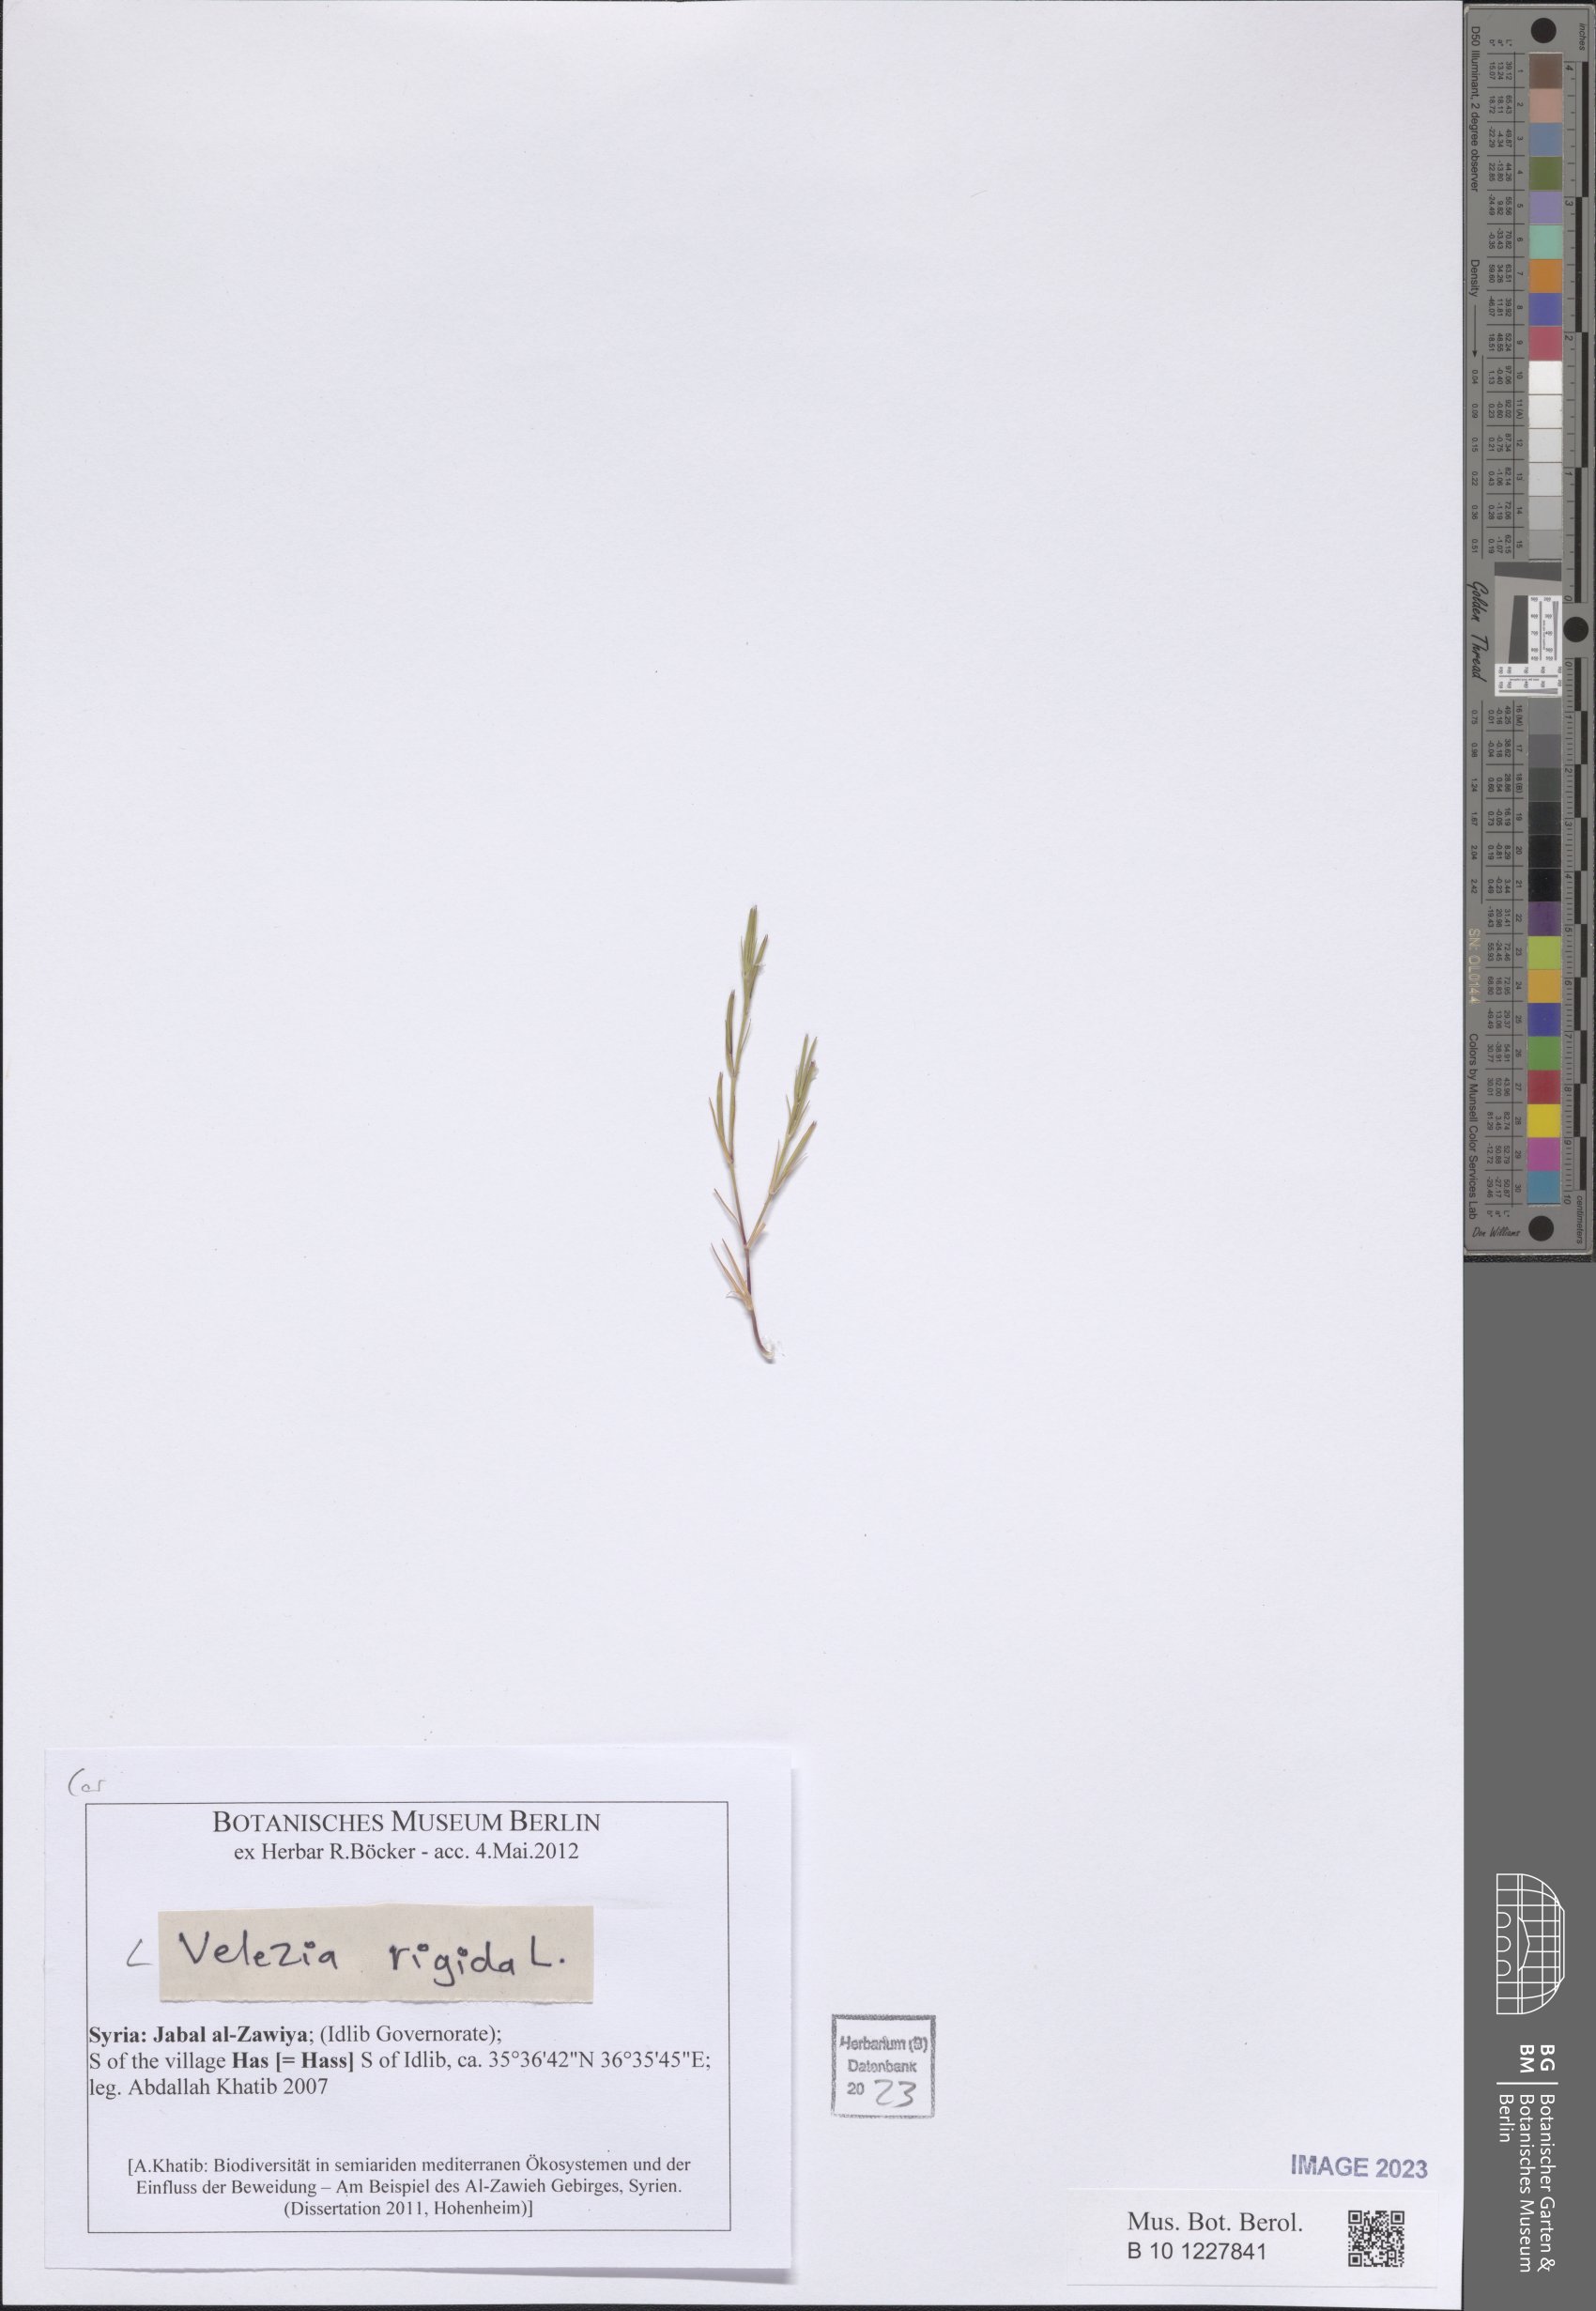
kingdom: Plantae
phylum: Tracheophyta
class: Magnoliopsida
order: Caryophyllales
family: Caryophyllaceae
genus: Dianthus
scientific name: Dianthus nudiflorus
